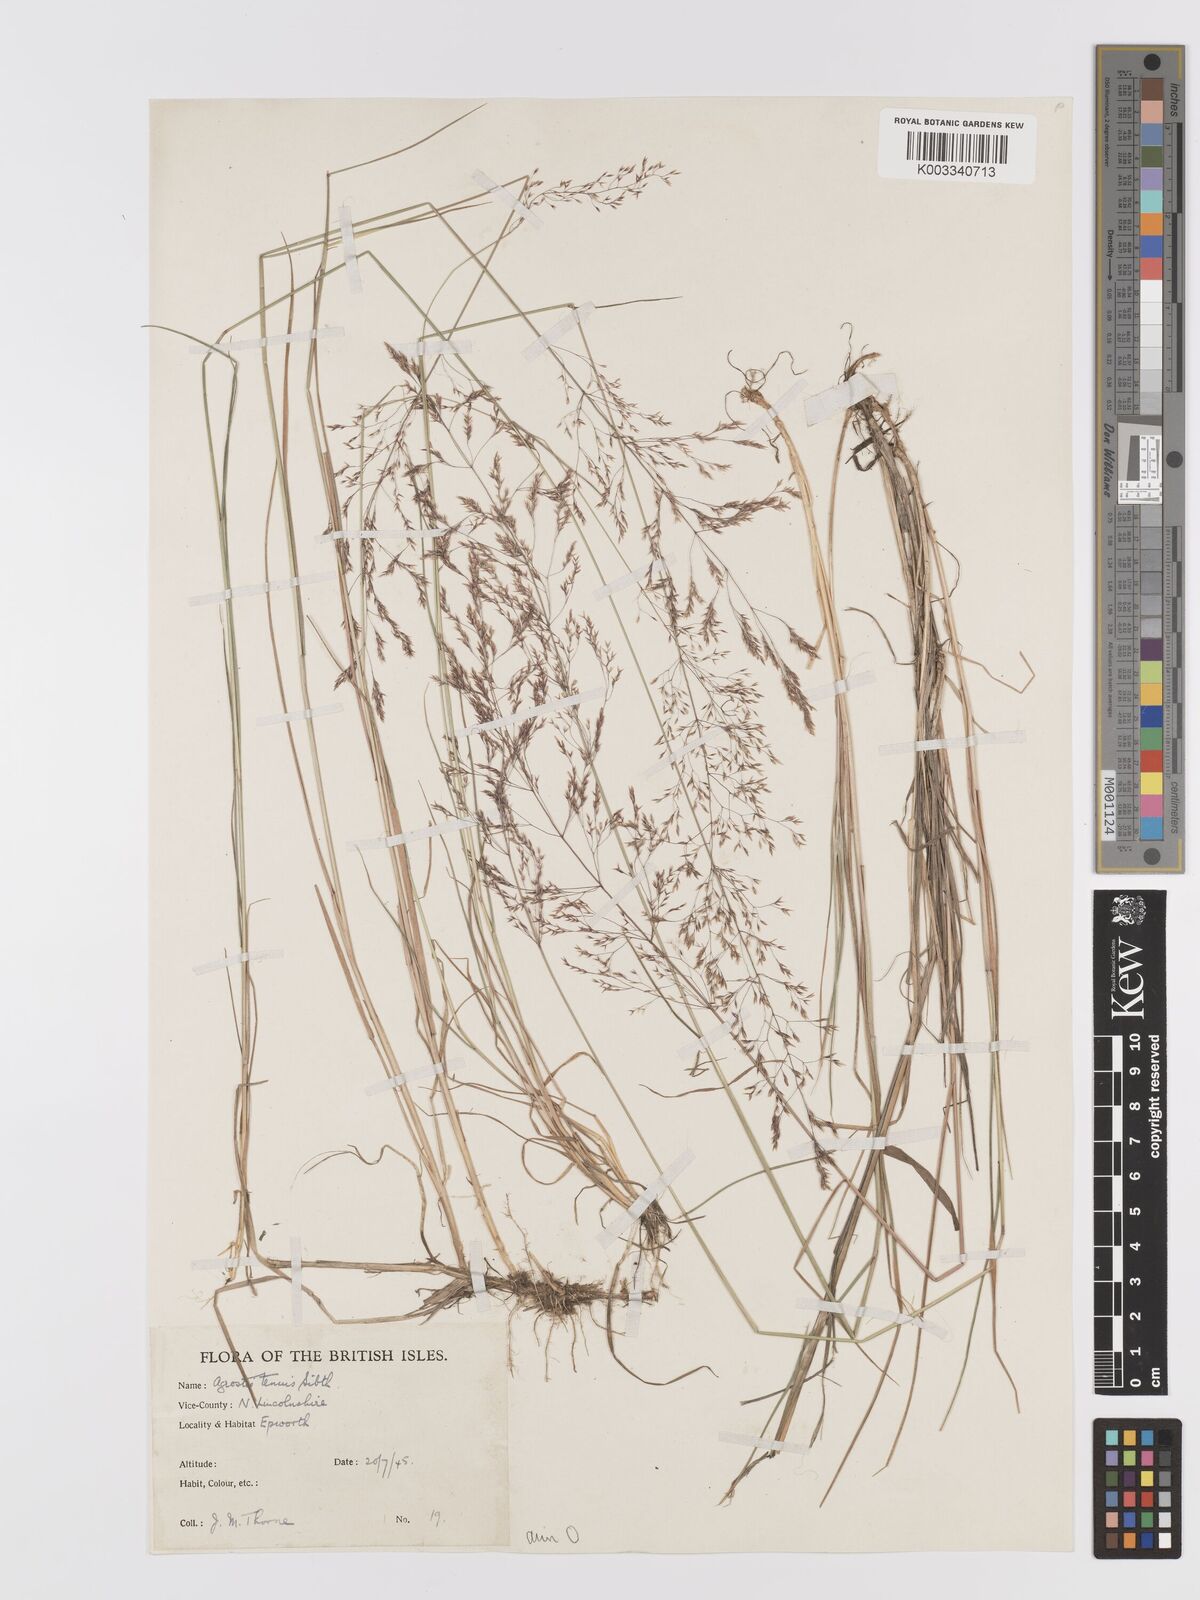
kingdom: Plantae
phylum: Tracheophyta
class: Liliopsida
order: Poales
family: Poaceae
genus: Agrostis
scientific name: Agrostis capillaris
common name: Colonial bentgrass
